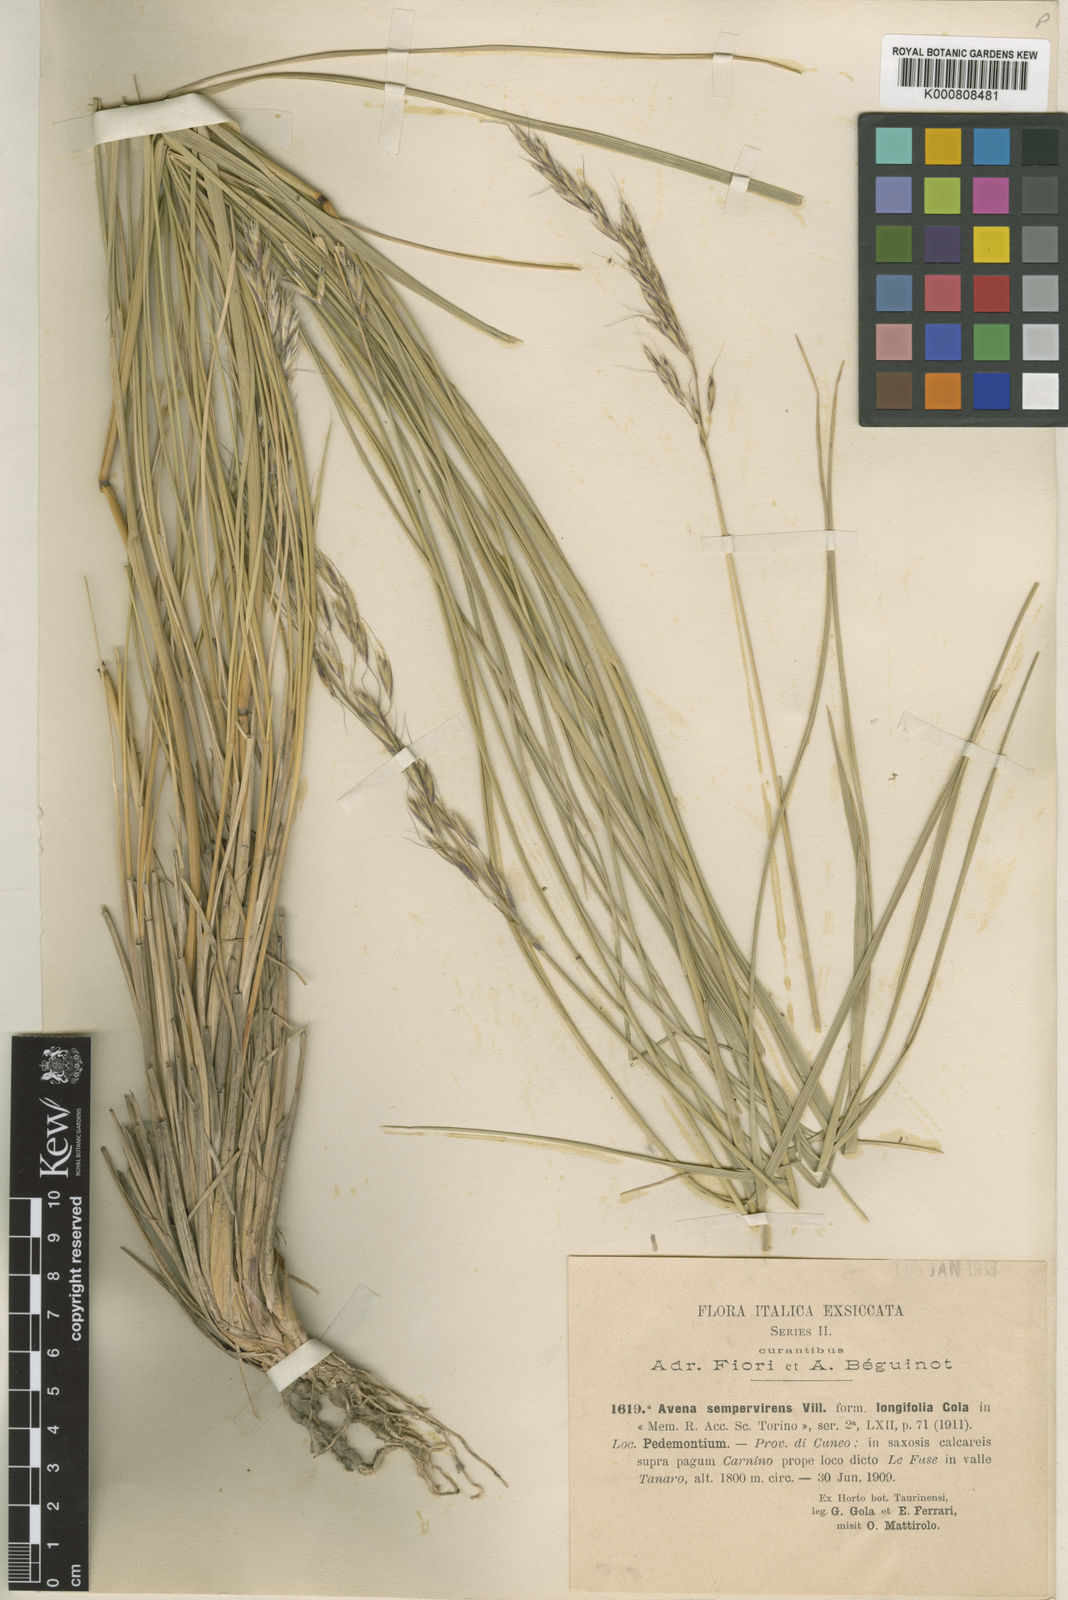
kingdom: Plantae
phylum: Tracheophyta
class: Liliopsida
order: Poales
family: Poaceae
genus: Helictotrichon
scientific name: Helictotrichon sempervirens
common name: Blue oat-grass
